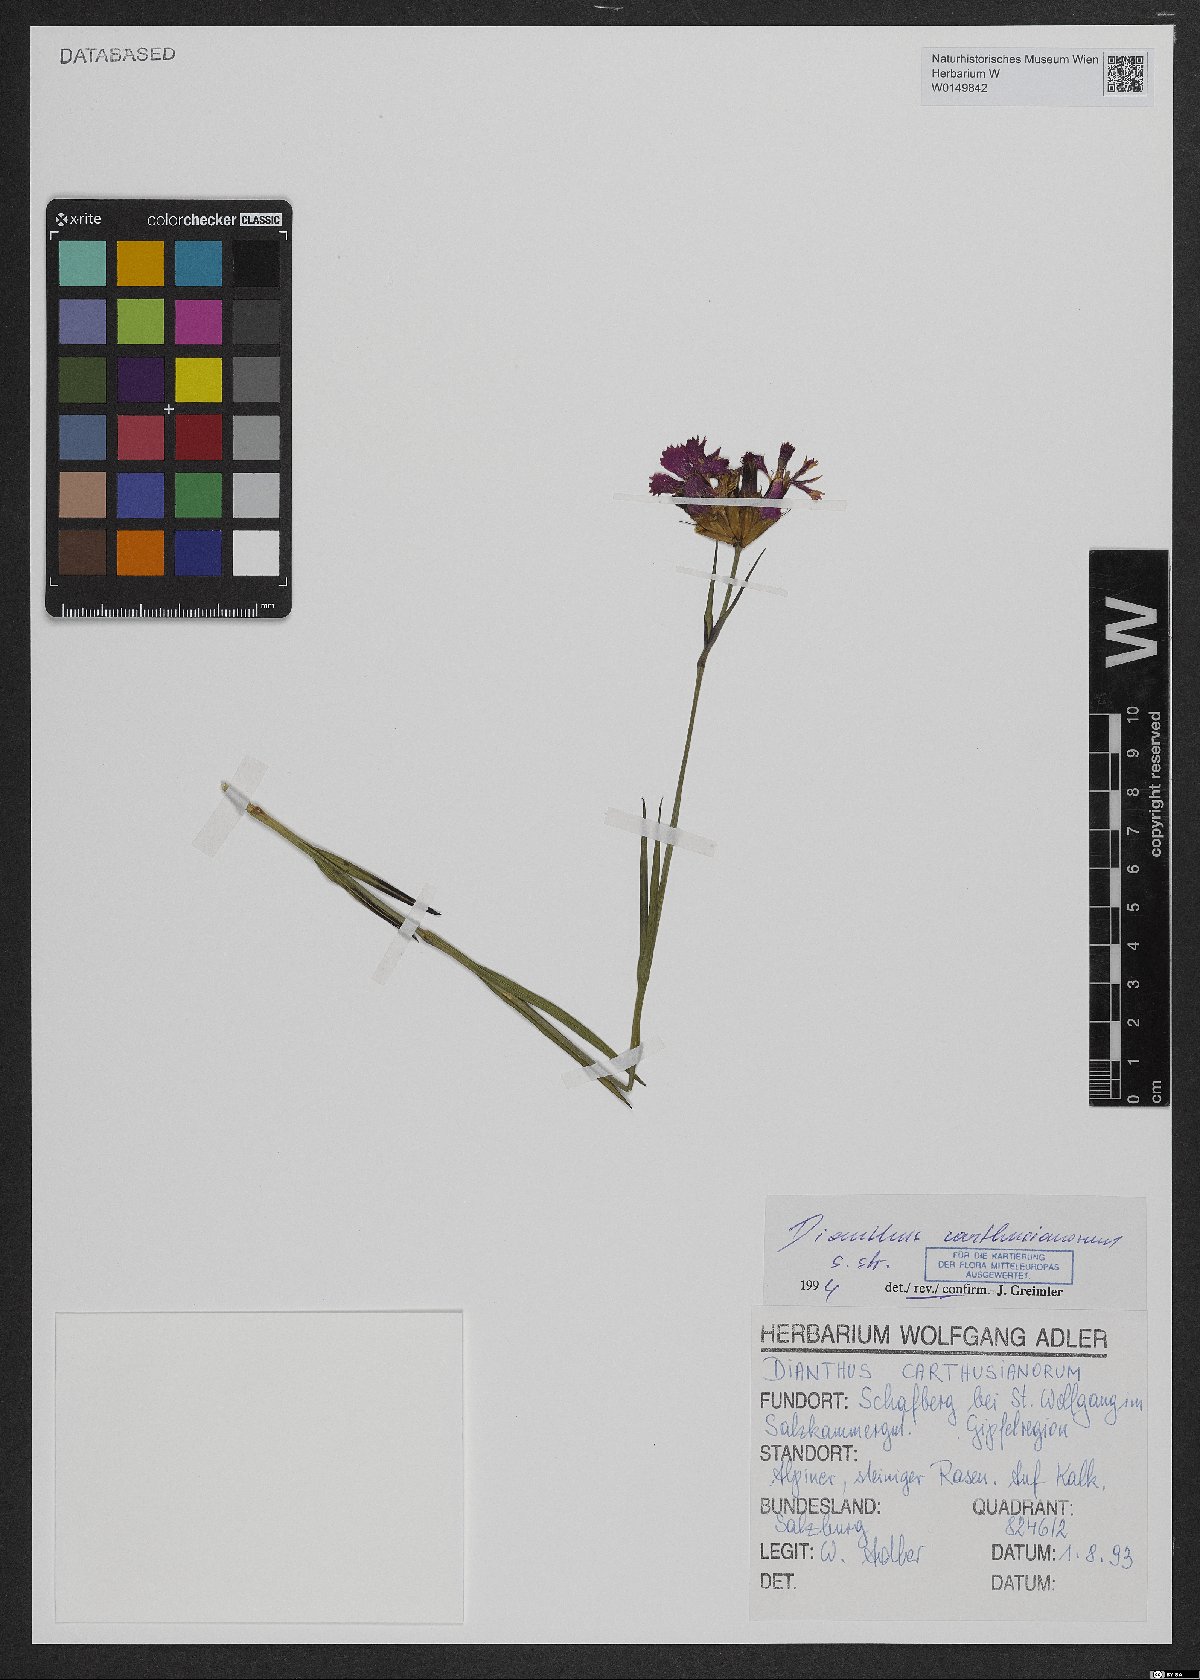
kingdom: Plantae
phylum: Tracheophyta
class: Magnoliopsida
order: Caryophyllales
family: Caryophyllaceae
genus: Dianthus
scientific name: Dianthus carthusianorum
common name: Carthusian pink
